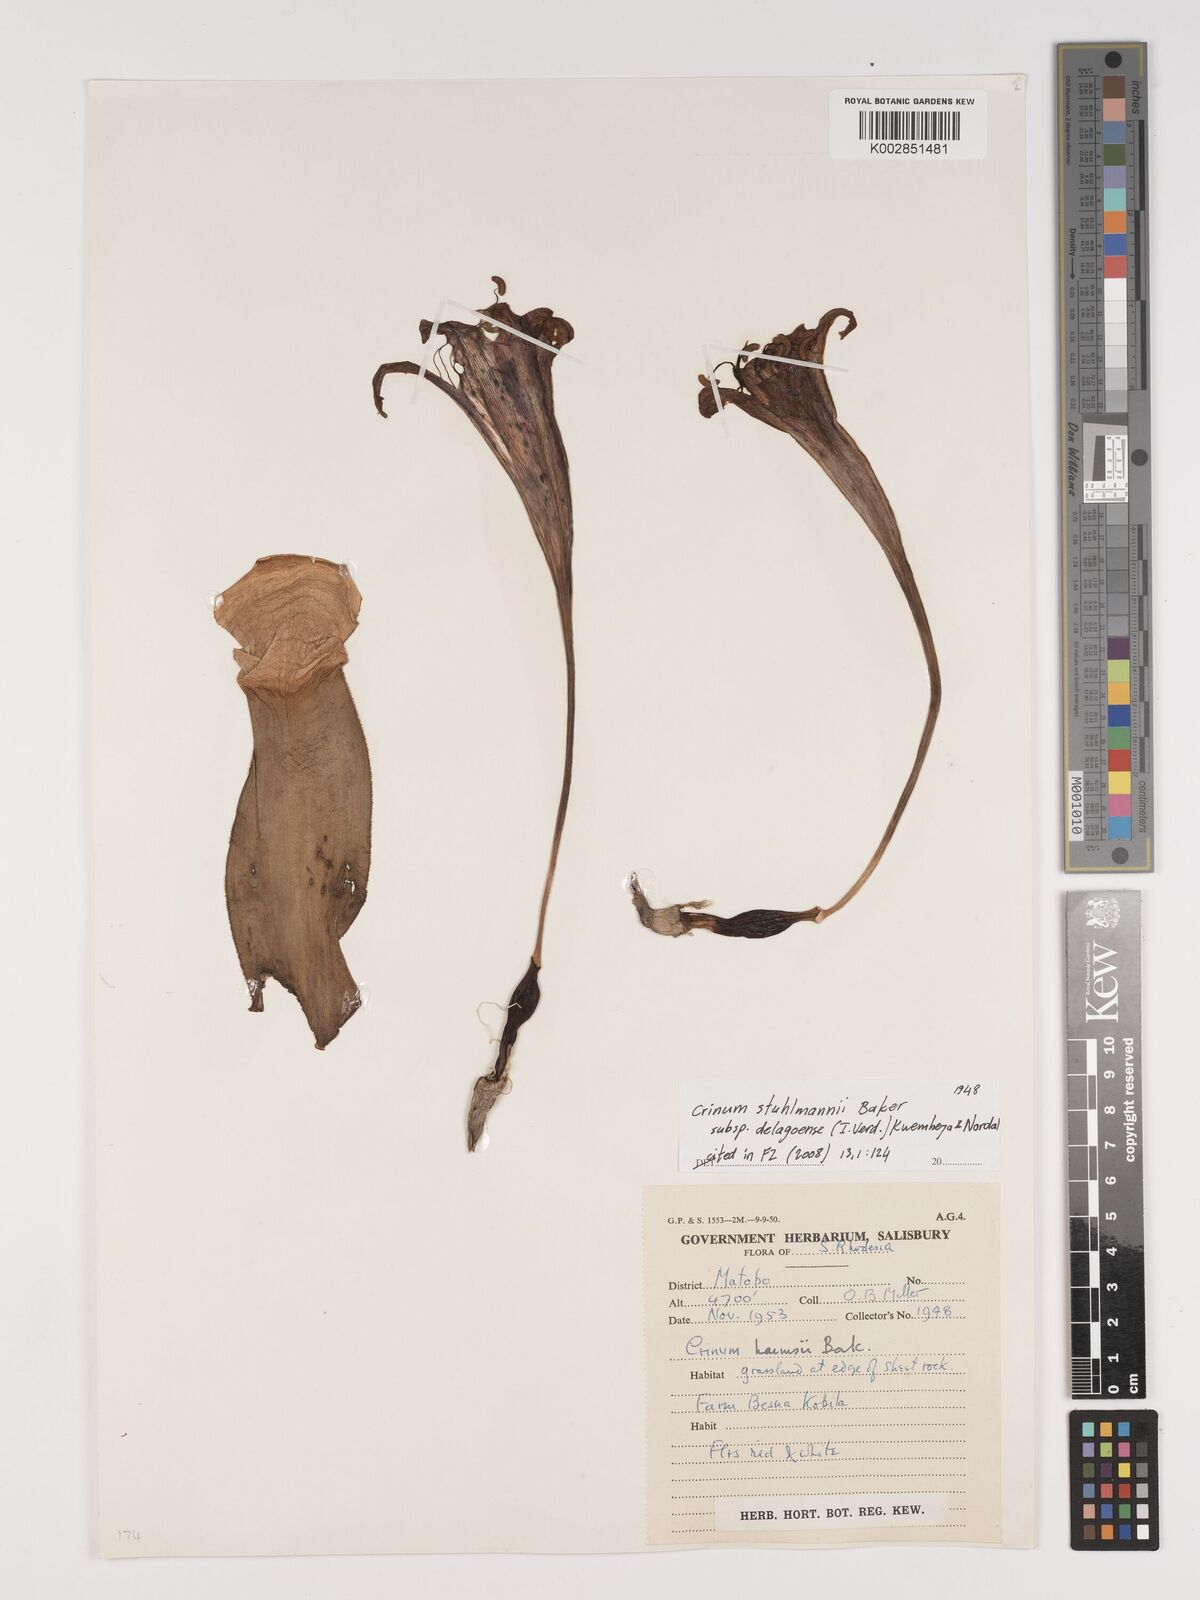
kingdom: Plantae
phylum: Tracheophyta
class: Liliopsida
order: Asparagales
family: Amaryllidaceae
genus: Crinum
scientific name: Crinum stuhlmannii
